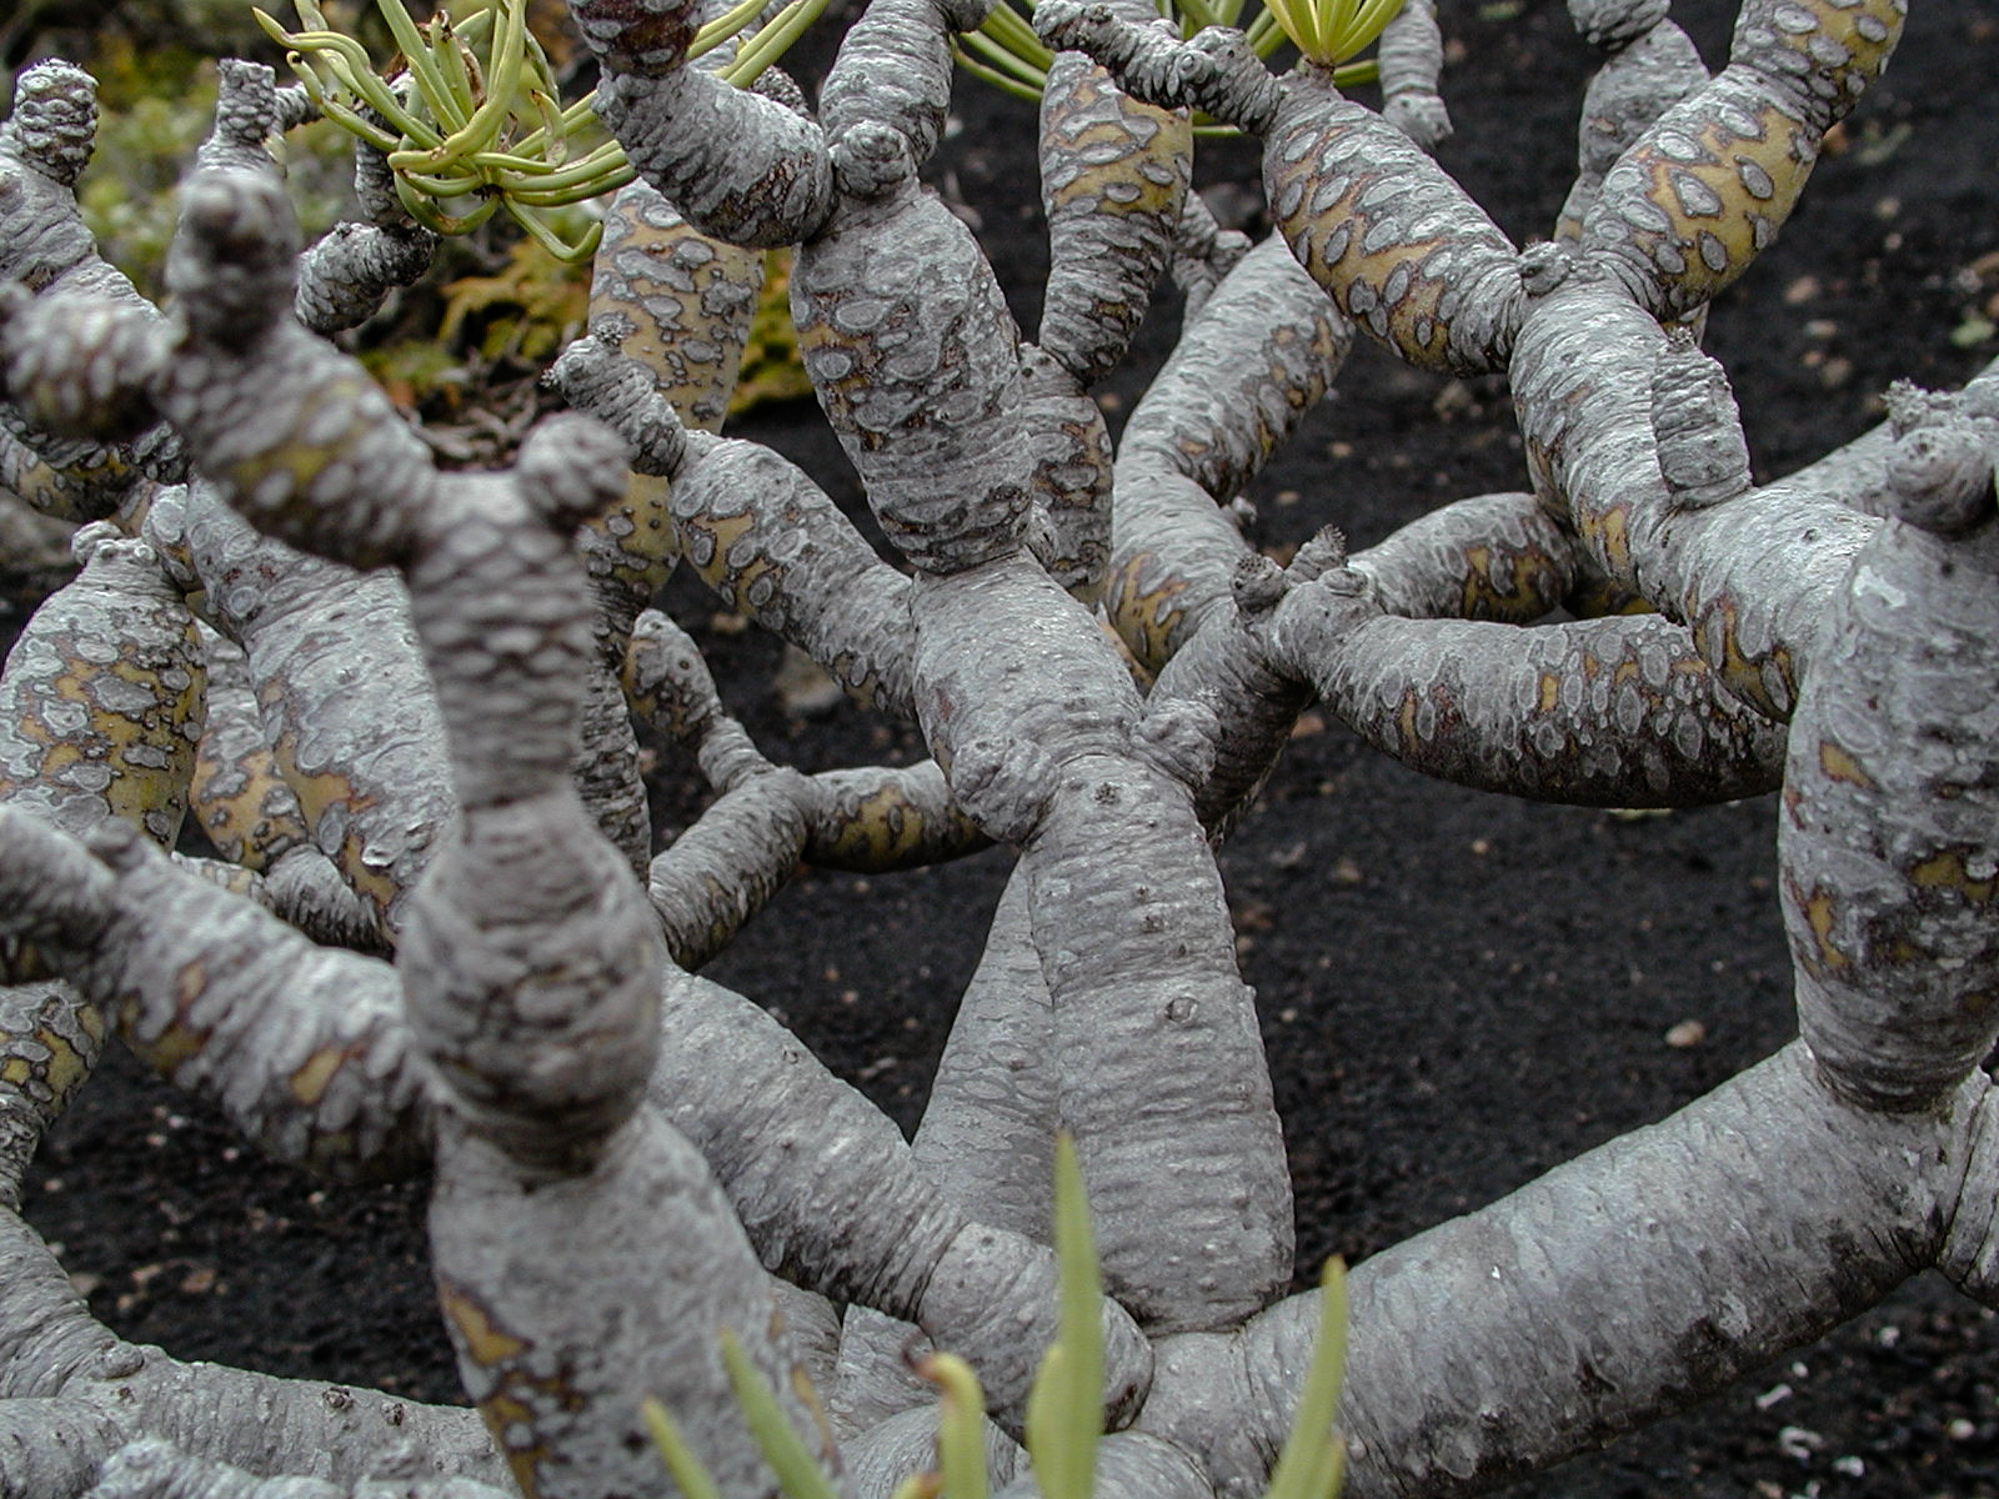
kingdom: Plantae
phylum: Tracheophyta
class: Magnoliopsida
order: Malpighiales
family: Euphorbiaceae
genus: Euphorbia
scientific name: Euphorbia balsamifera
